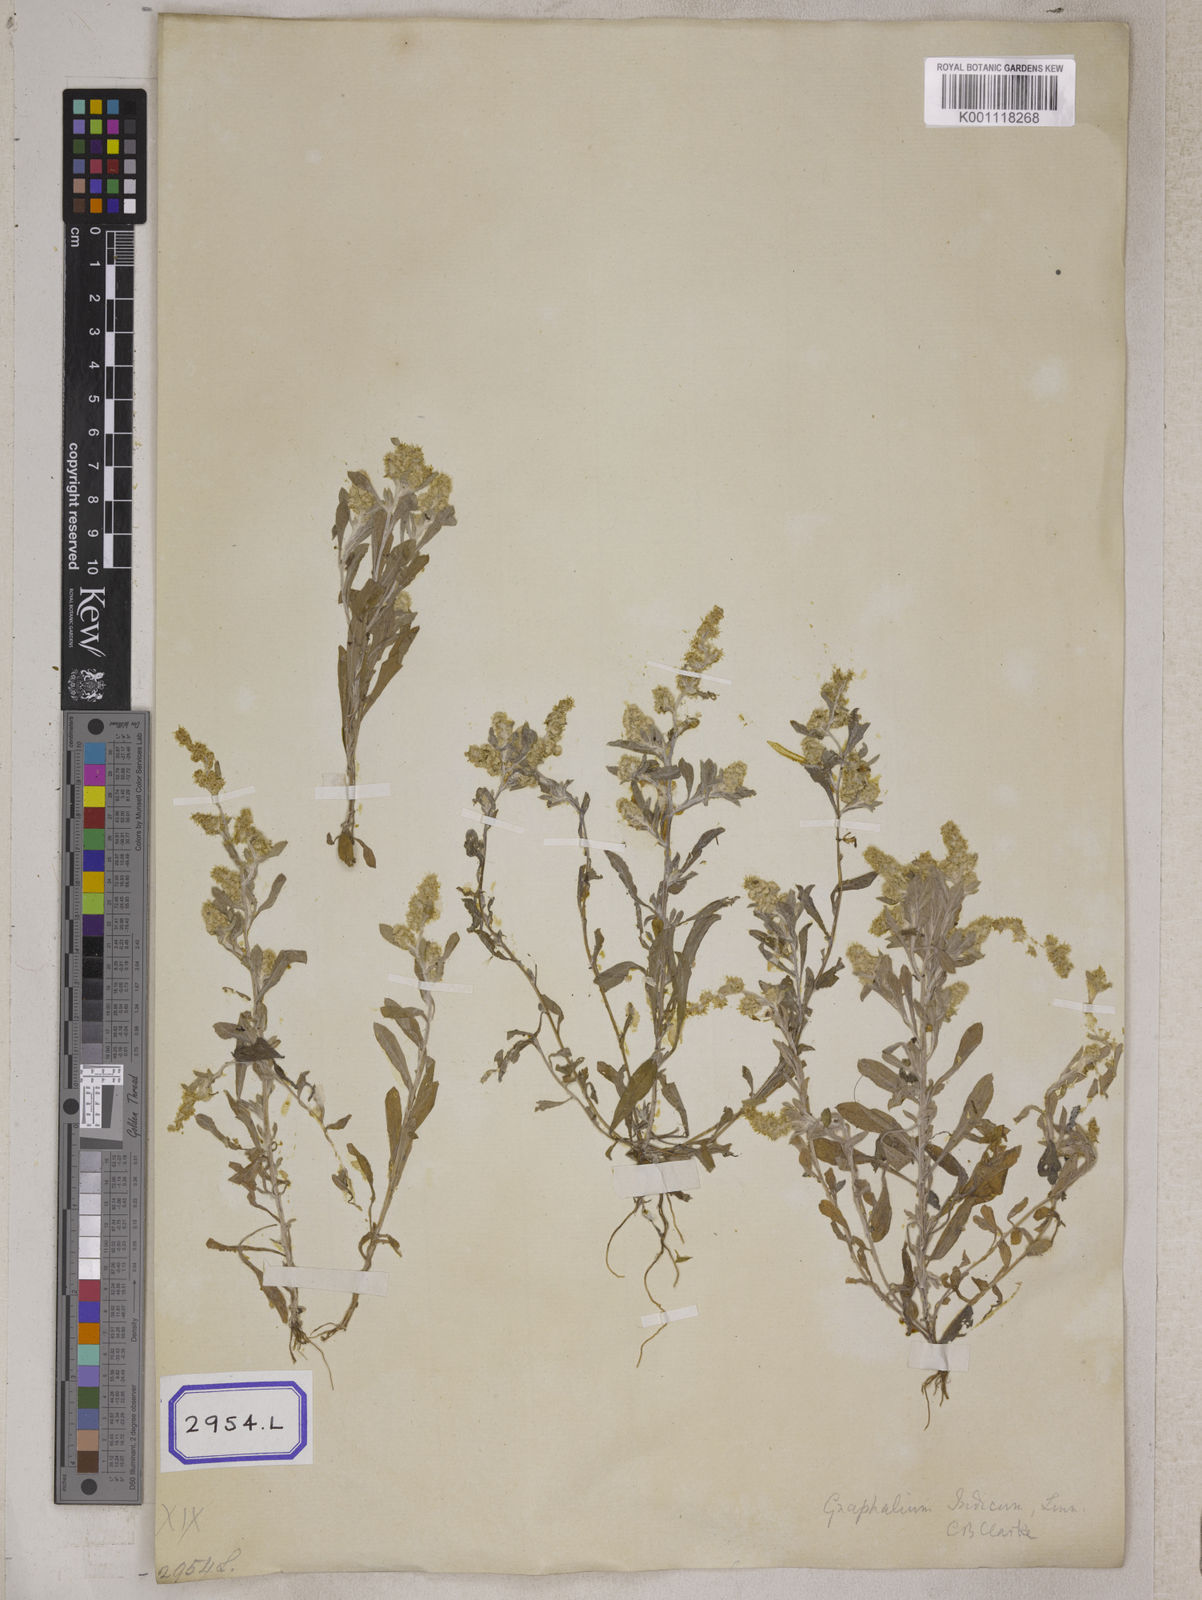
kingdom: Plantae
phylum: Tracheophyta
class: Magnoliopsida
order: Asterales
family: Asteraceae
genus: Helichrysum
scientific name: Helichrysum indicum
